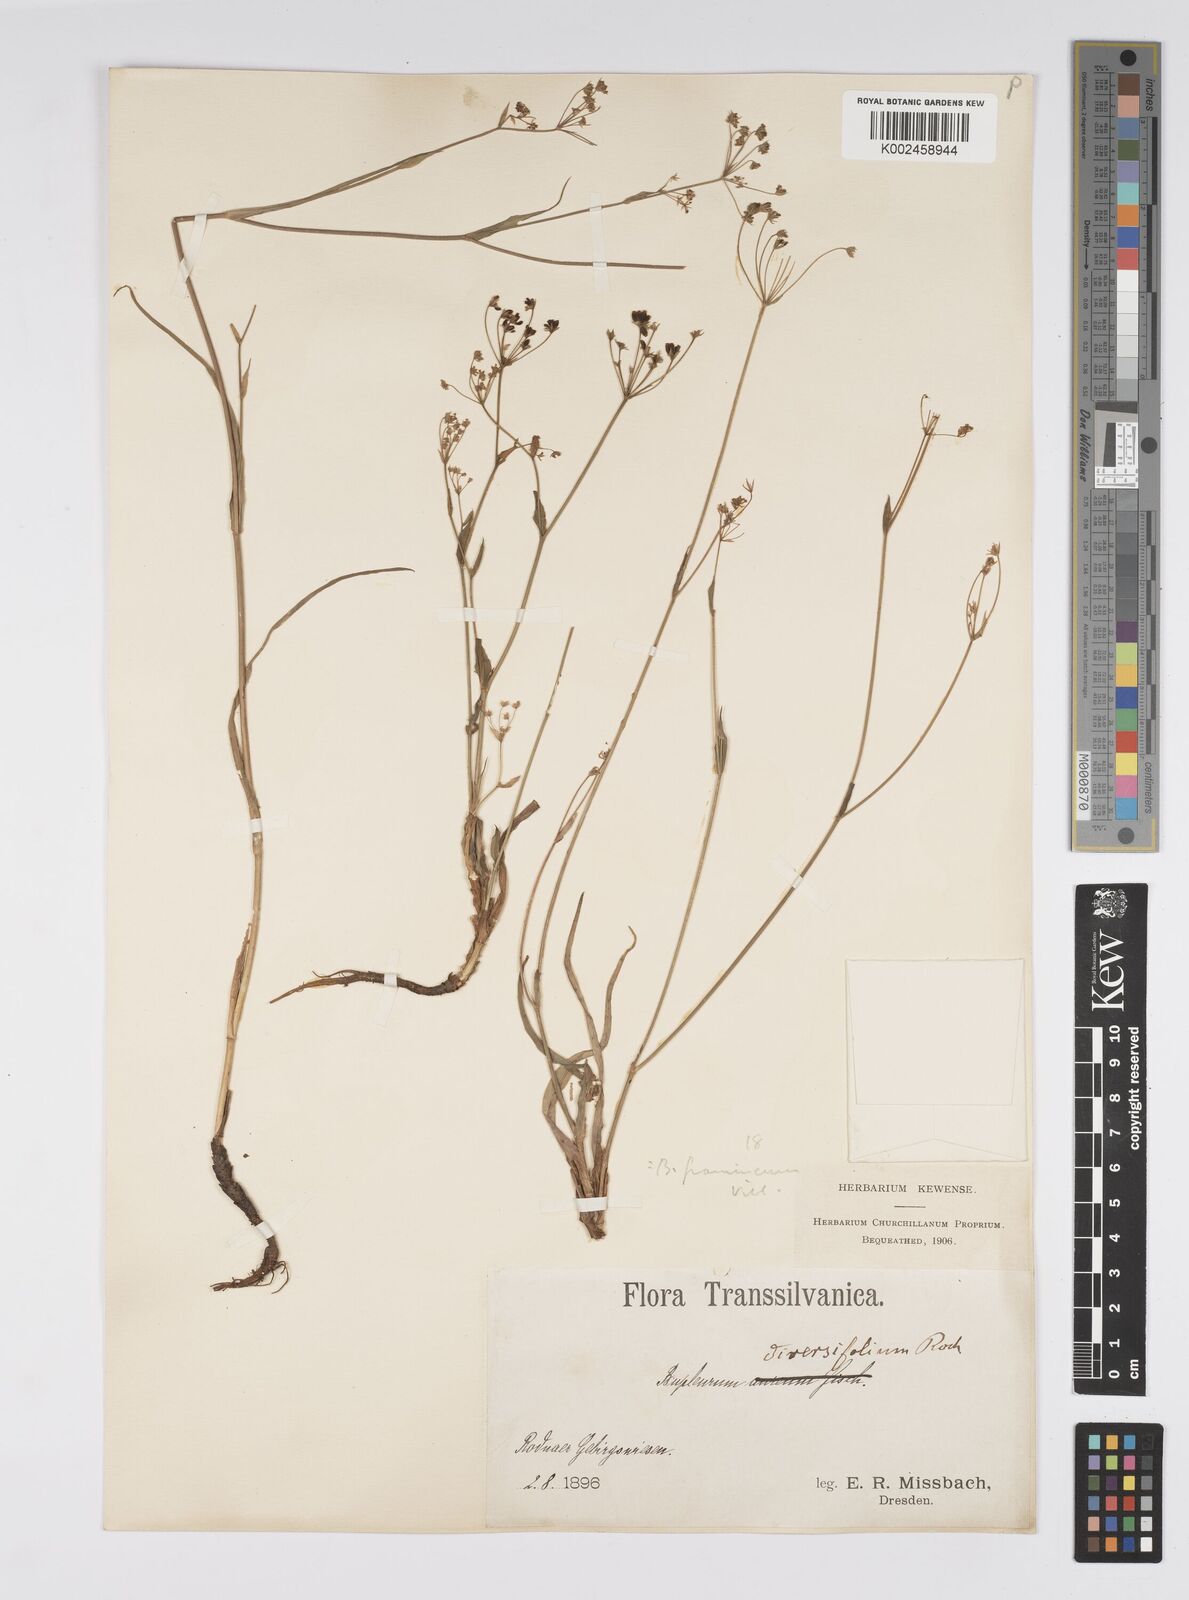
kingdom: Plantae
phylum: Tracheophyta
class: Magnoliopsida
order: Apiales
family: Apiaceae
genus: Bupleurum
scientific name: Bupleurum falcatum
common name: Sickle-leaved hare's-ear
